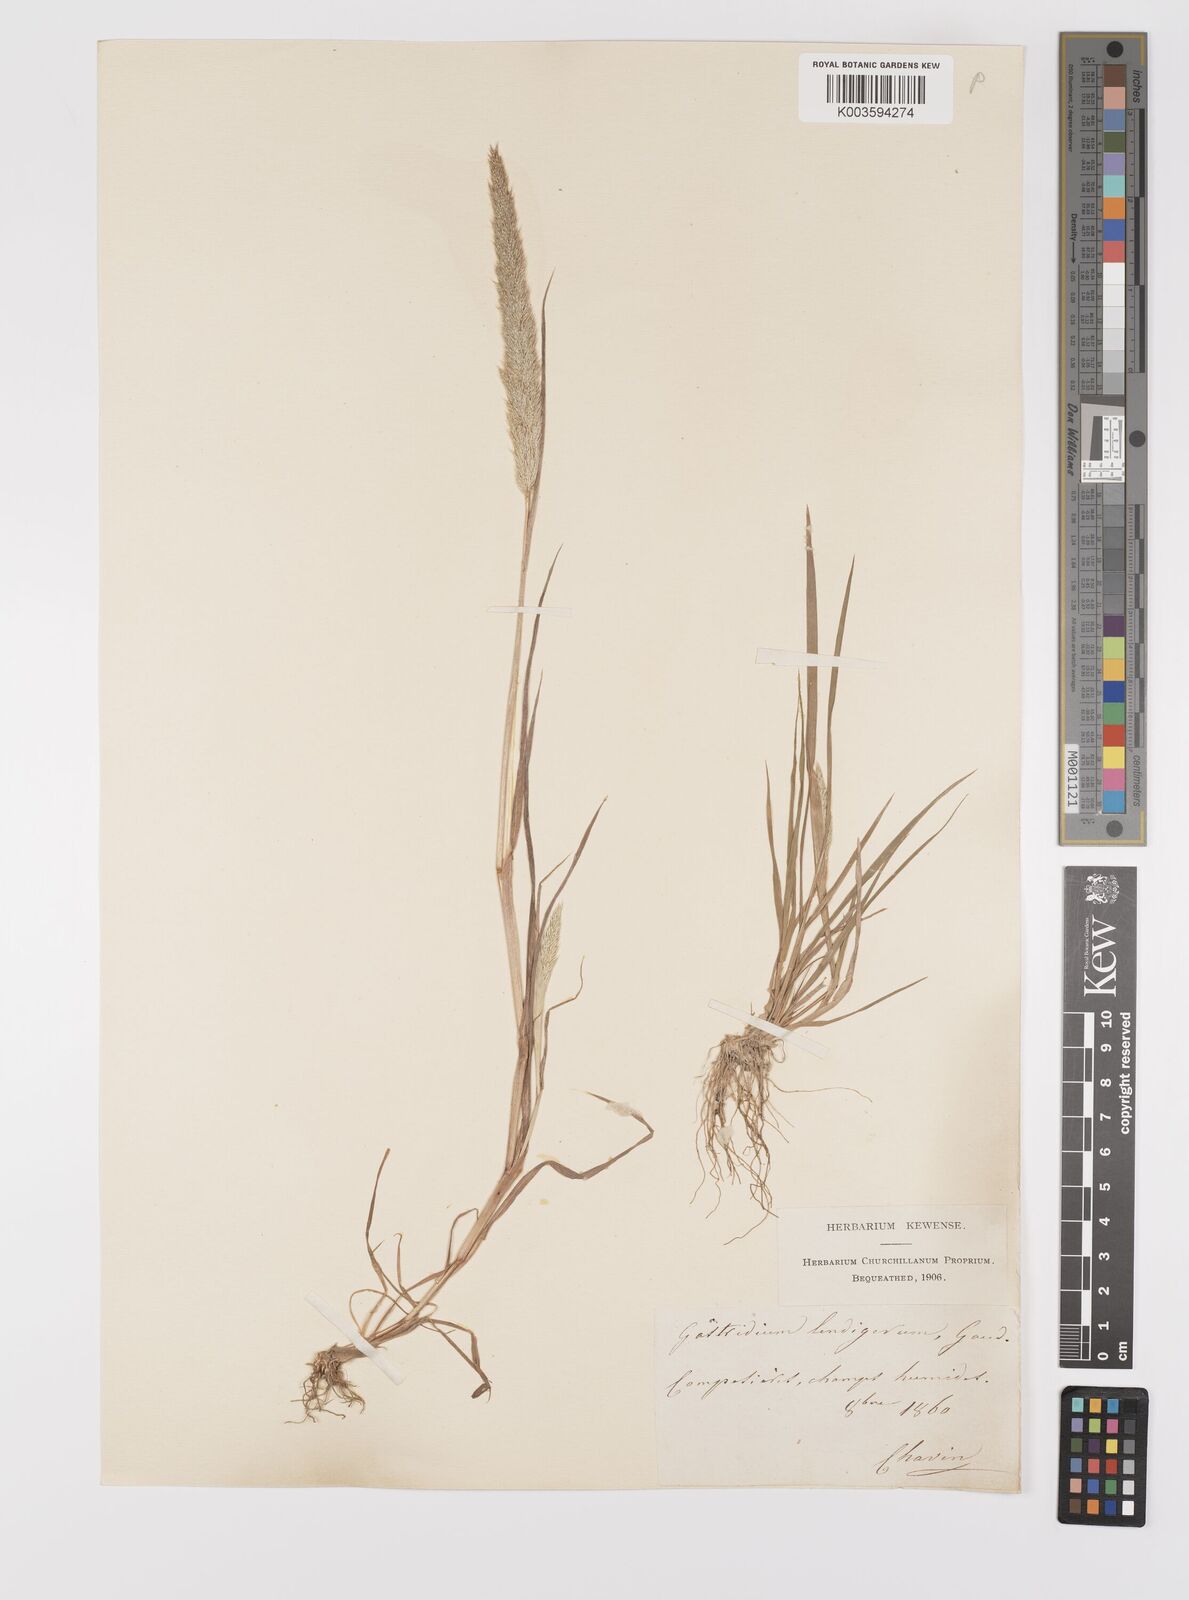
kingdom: Plantae
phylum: Tracheophyta
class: Liliopsida
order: Poales
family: Poaceae
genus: Gastridium
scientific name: Gastridium ventricosum
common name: Nit-grass
